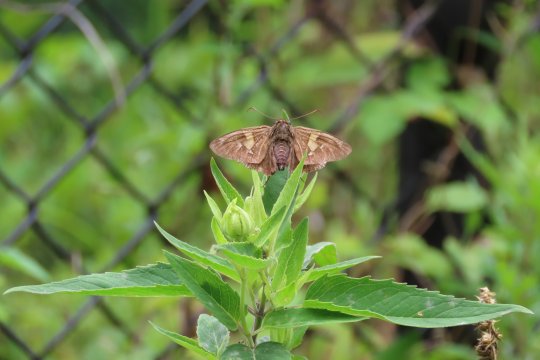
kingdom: Animalia
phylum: Arthropoda
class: Insecta
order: Lepidoptera
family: Hesperiidae
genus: Epargyreus
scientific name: Epargyreus clarus
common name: Silver-spotted Skipper
